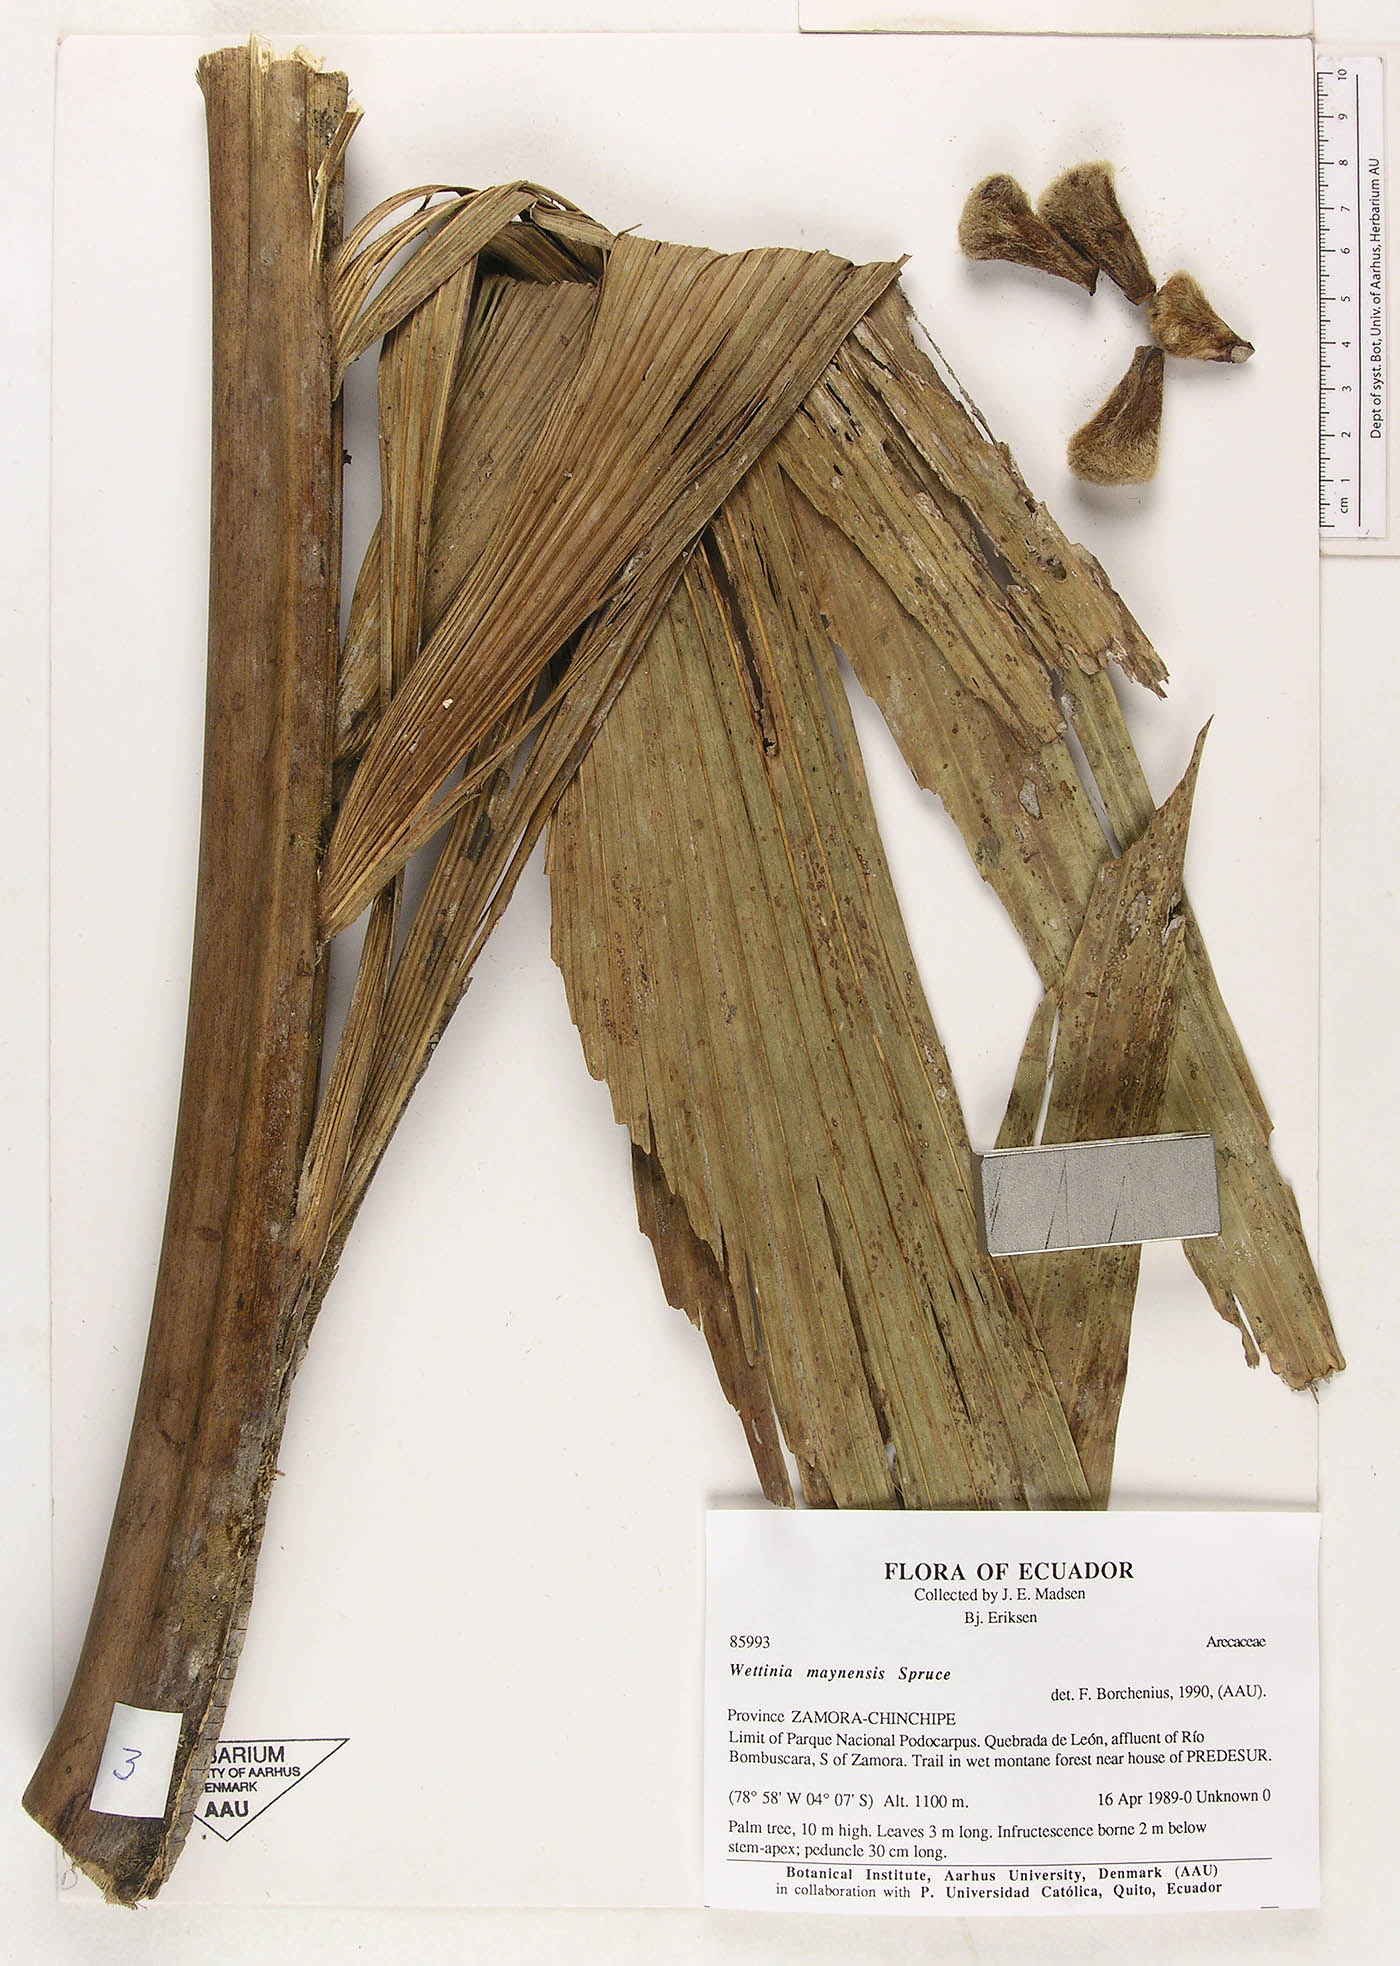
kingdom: Plantae
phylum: Tracheophyta
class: Liliopsida
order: Arecales
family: Arecaceae
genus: Wettinia
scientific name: Wettinia maynensis
